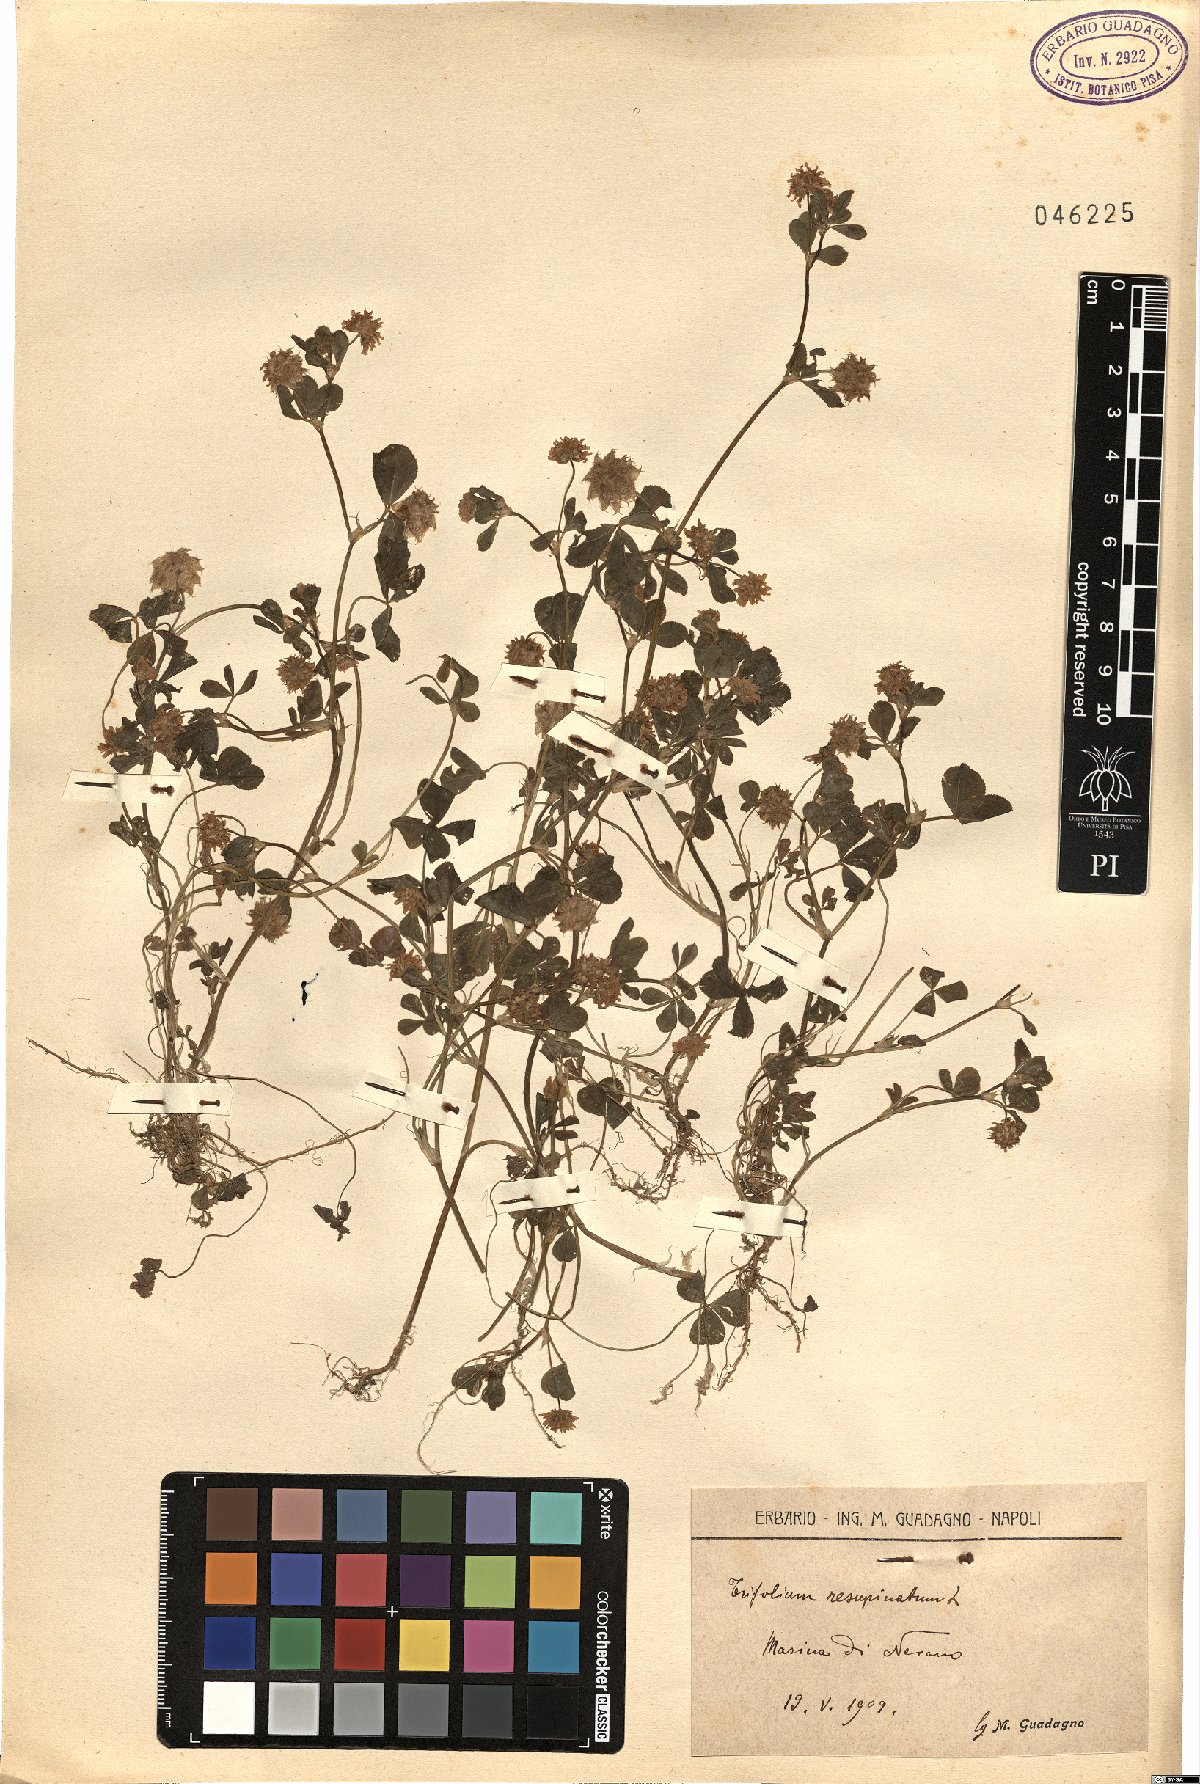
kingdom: Plantae
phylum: Tracheophyta
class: Magnoliopsida
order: Fabales
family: Fabaceae
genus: Trifolium
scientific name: Trifolium resupinatum
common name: Reversed clover
